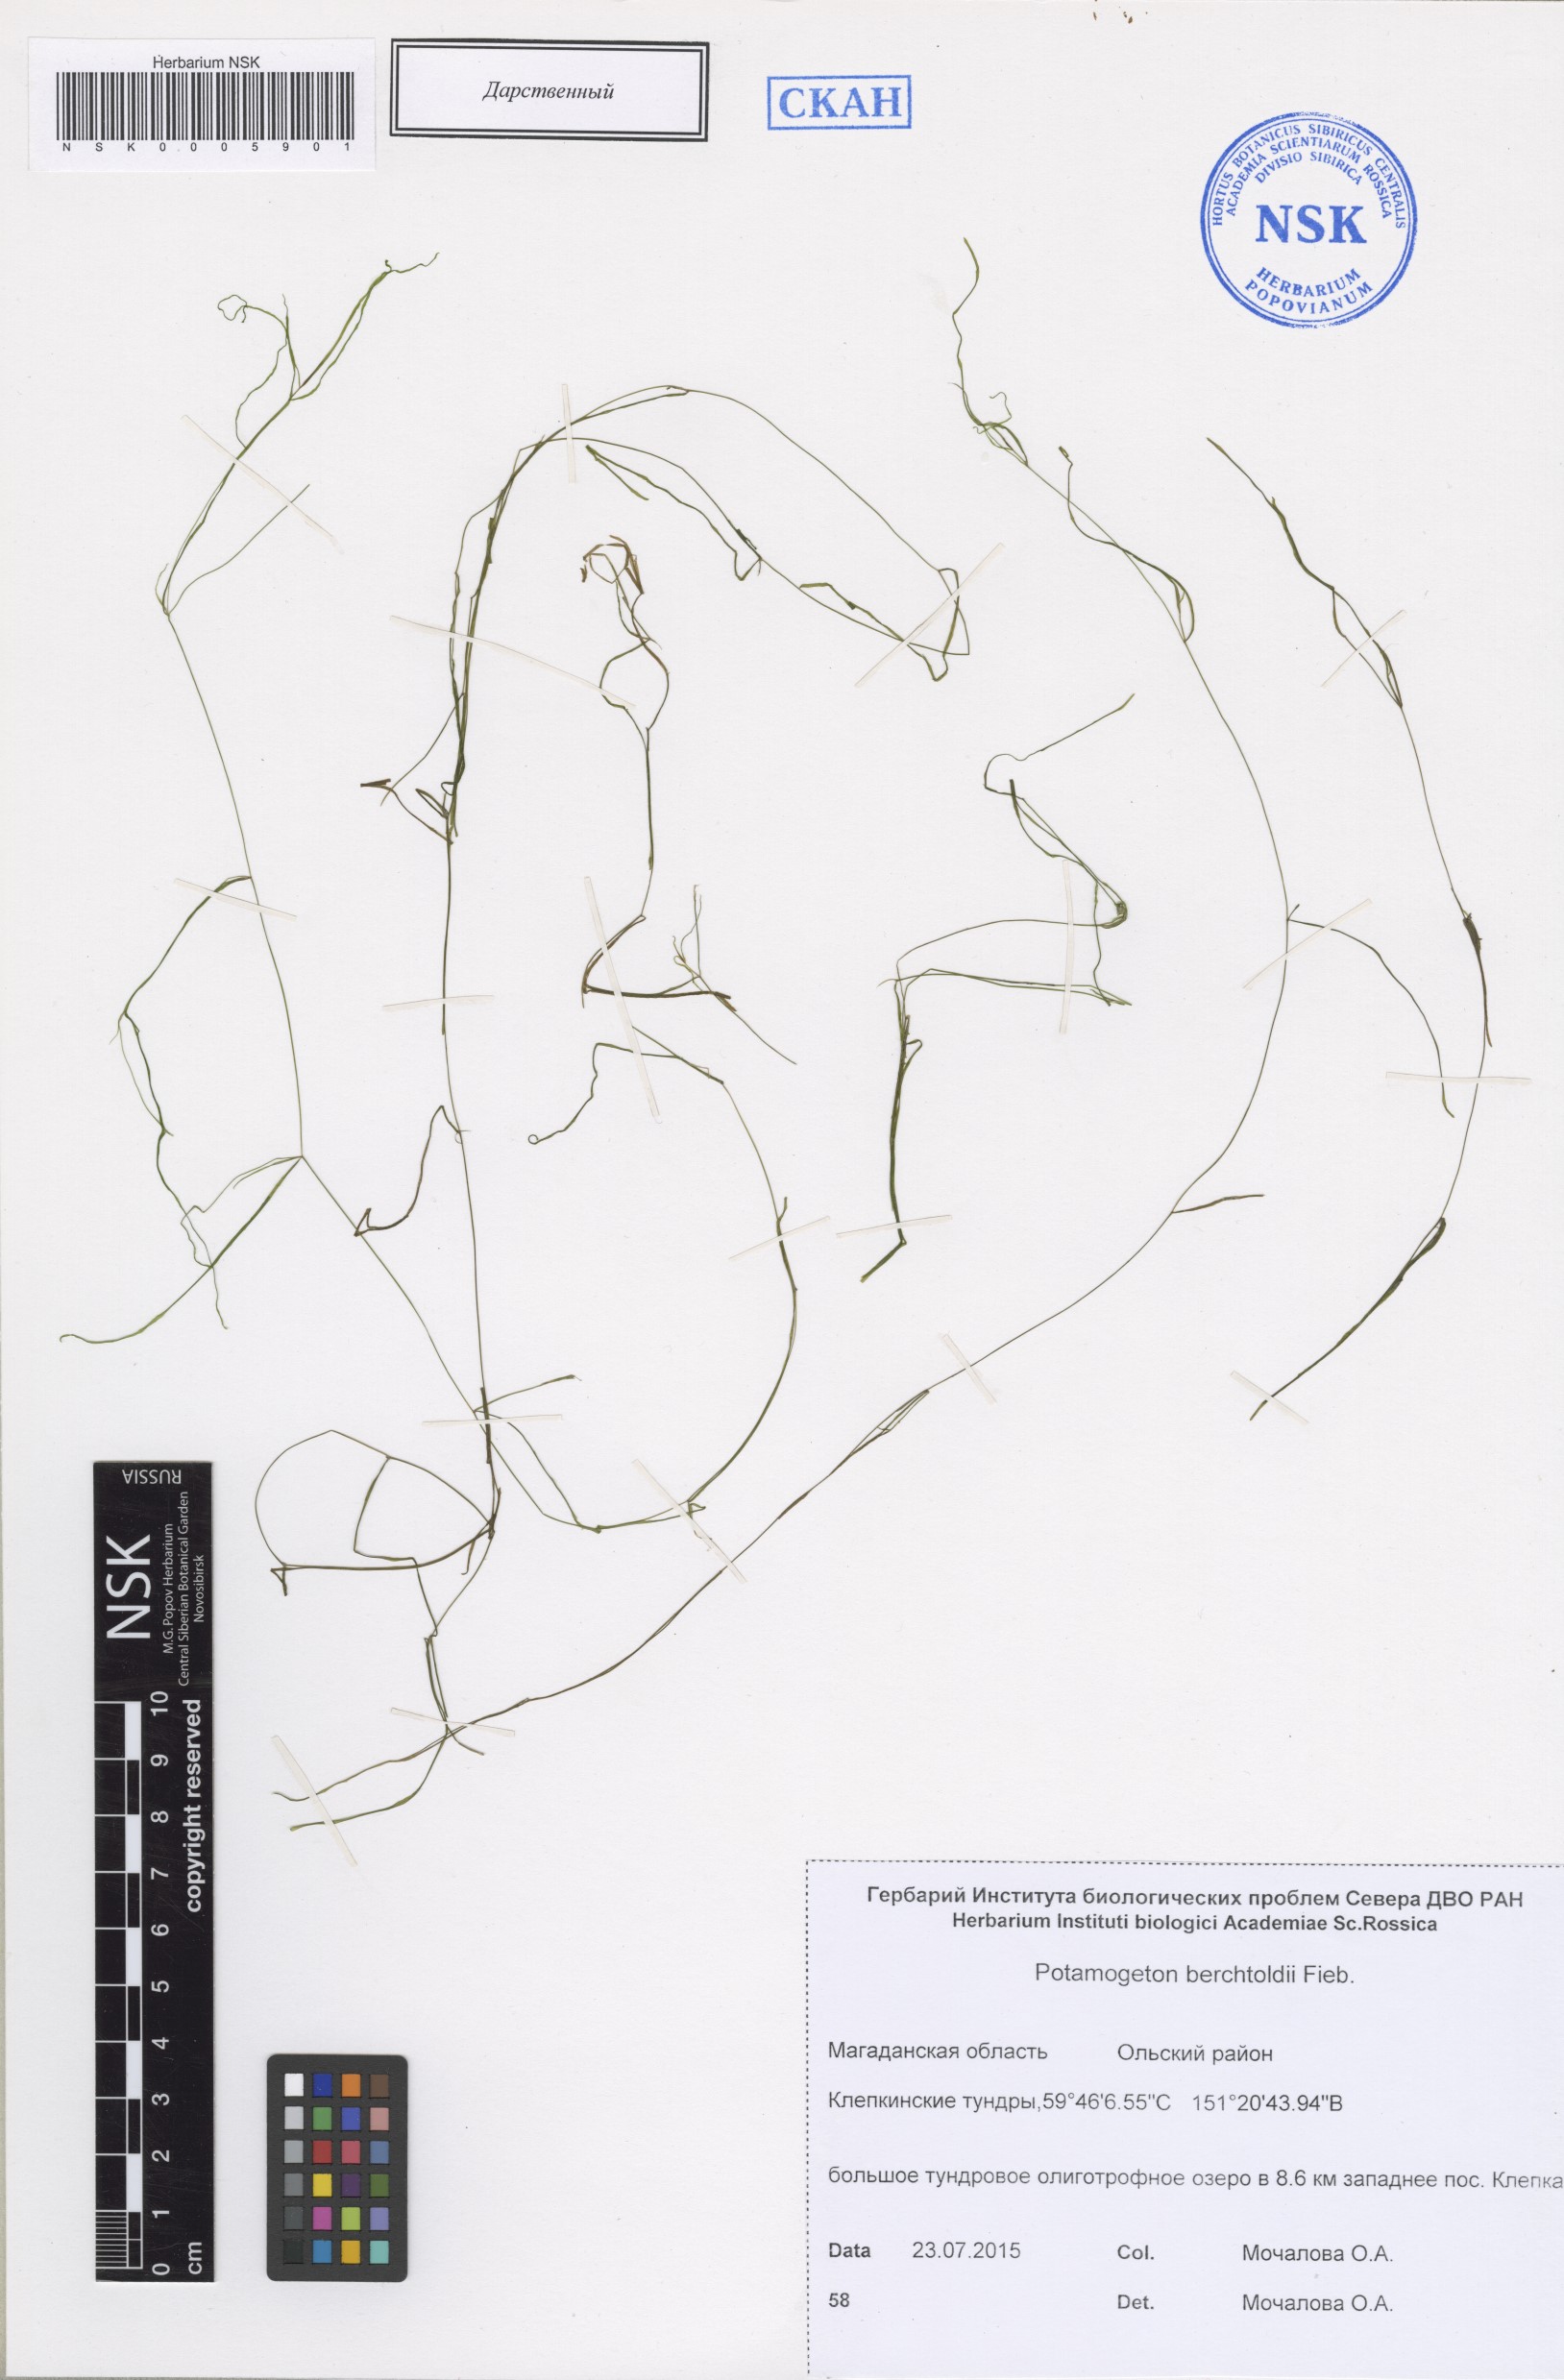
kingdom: Plantae
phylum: Tracheophyta
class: Liliopsida
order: Alismatales
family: Potamogetonaceae
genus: Potamogeton
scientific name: Potamogeton berchtoldii
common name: Small pondweed
